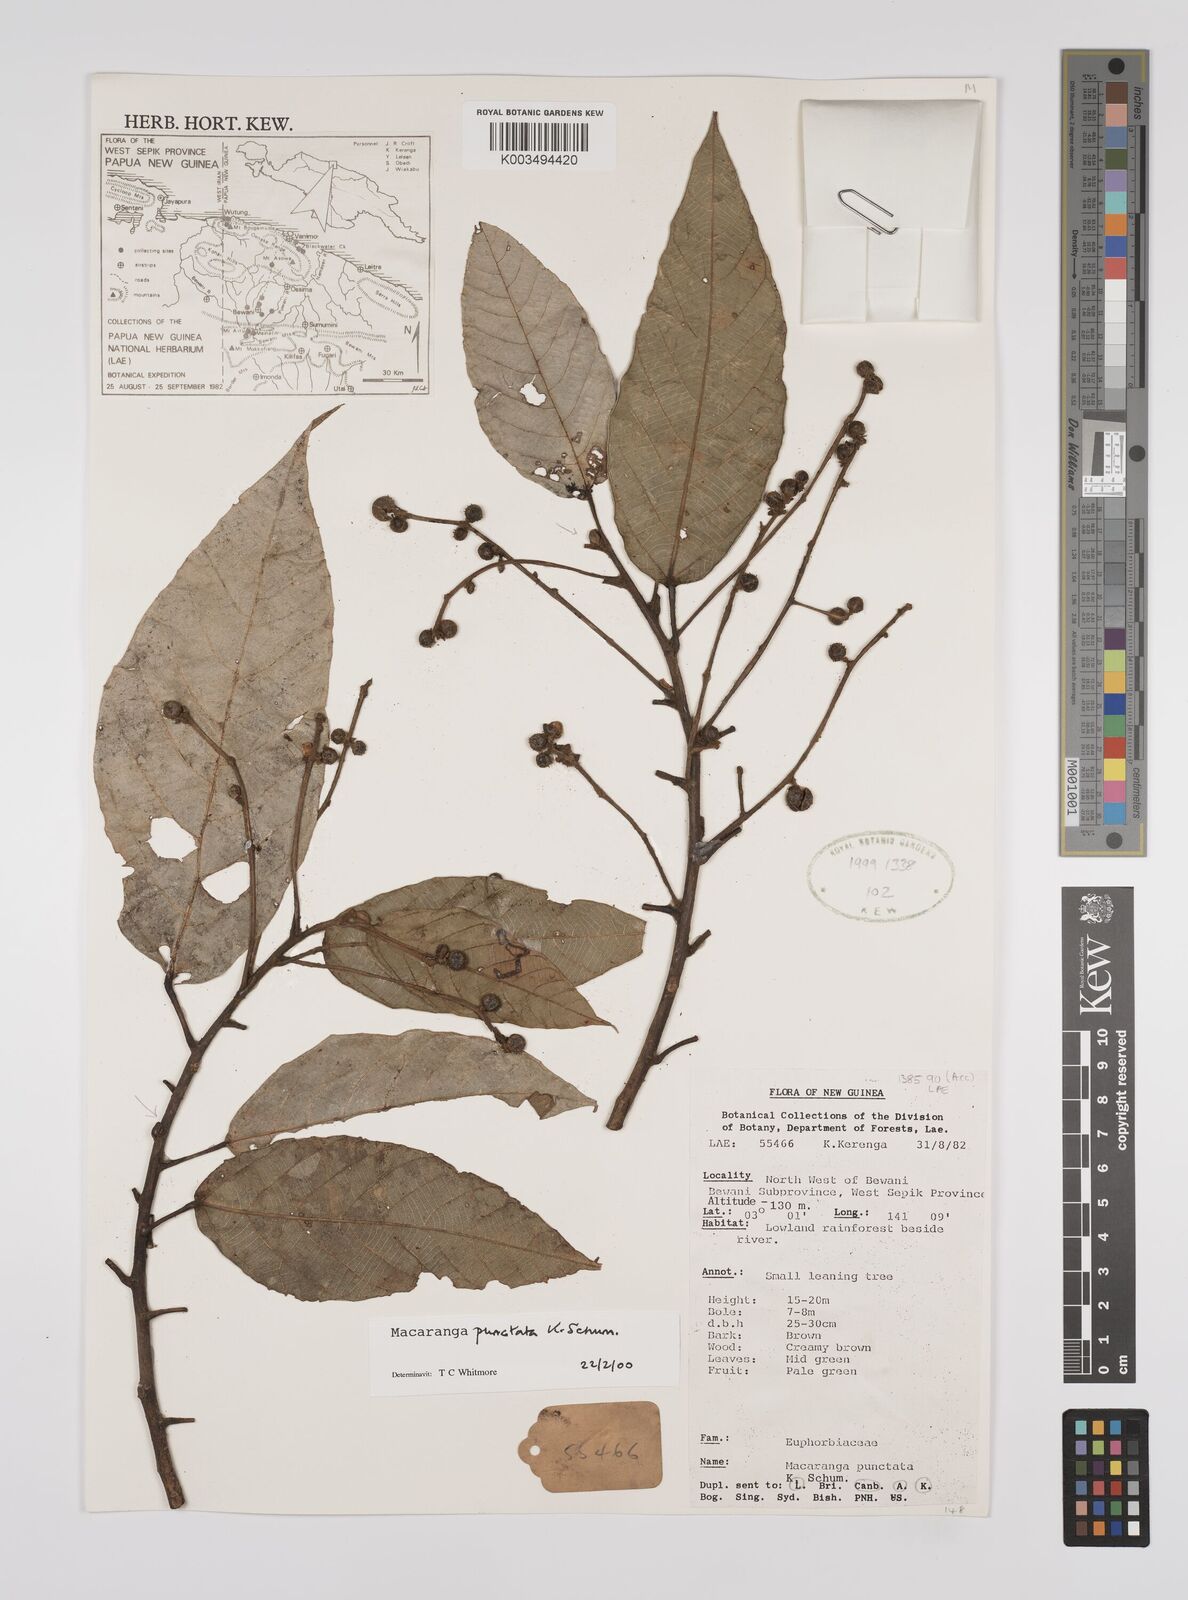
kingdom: Plantae
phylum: Tracheophyta
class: Magnoliopsida
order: Malpighiales
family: Euphorbiaceae
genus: Macaranga
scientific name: Macaranga punctata
